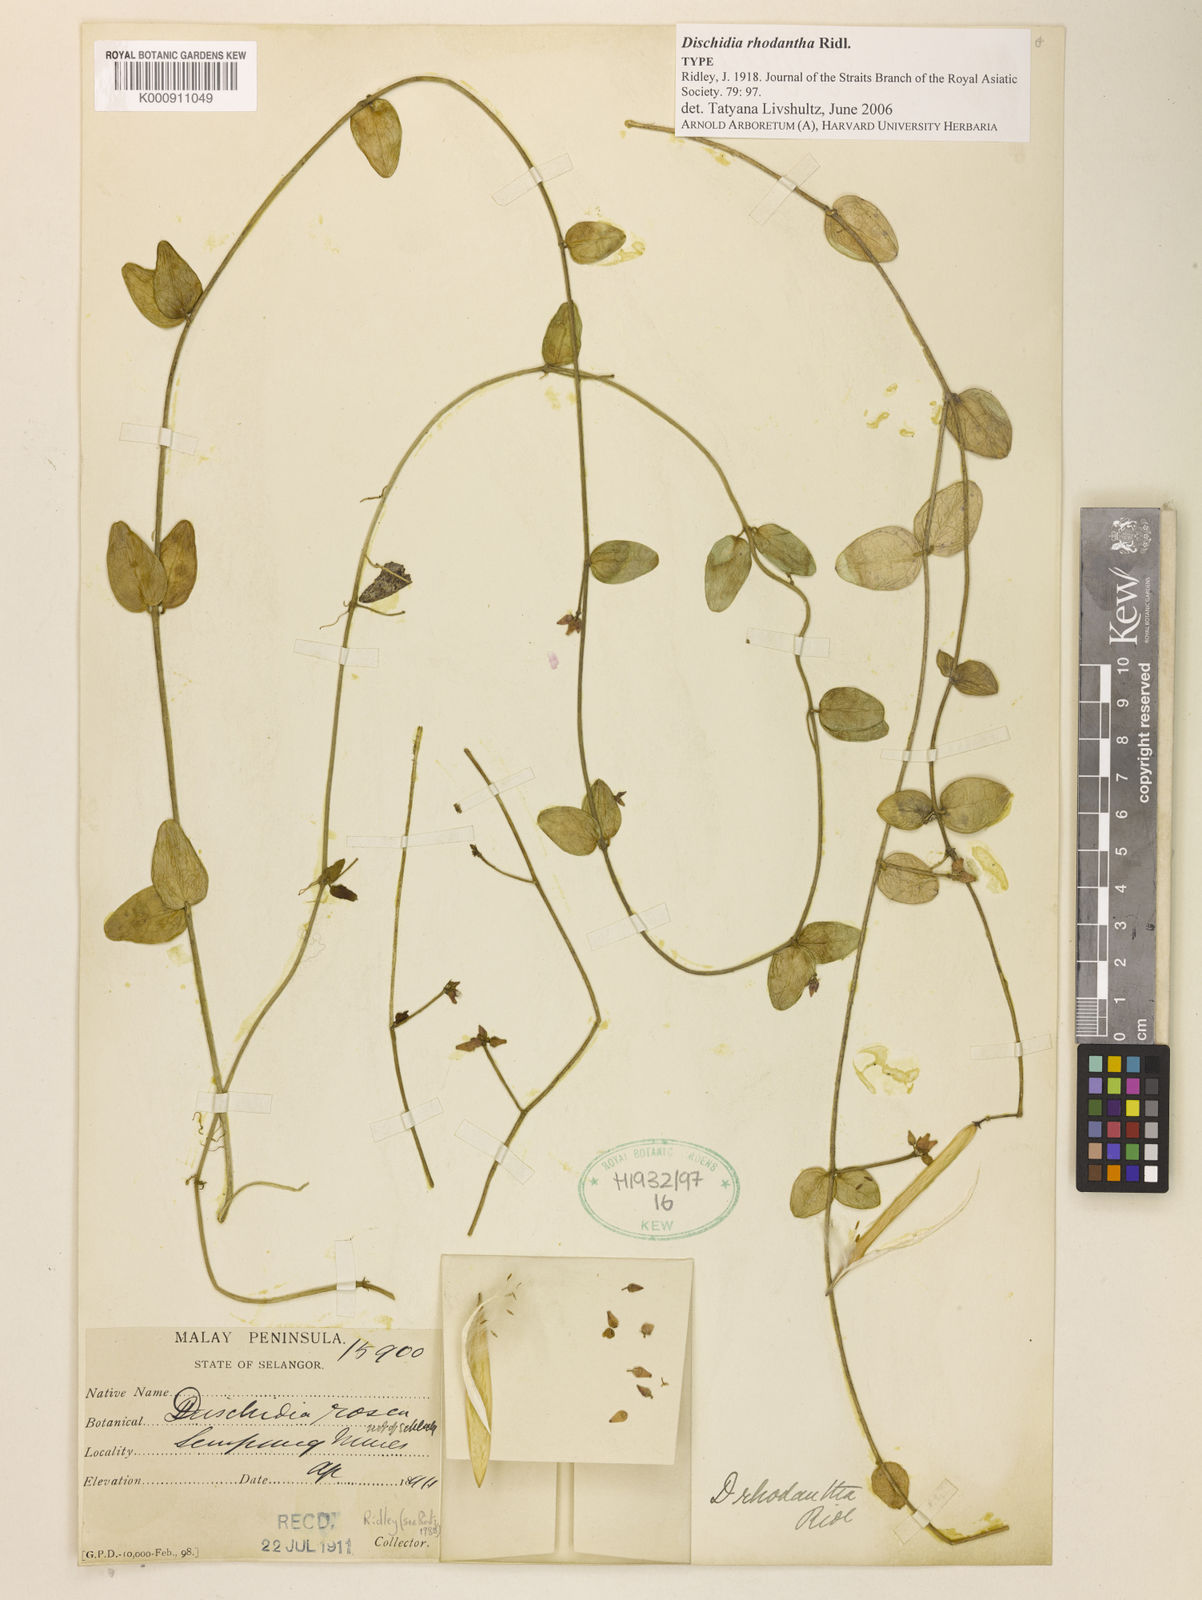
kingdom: Plantae
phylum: Tracheophyta
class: Magnoliopsida
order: Gentianales
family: Apocynaceae
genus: Dischidia
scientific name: Dischidia rhodantha
